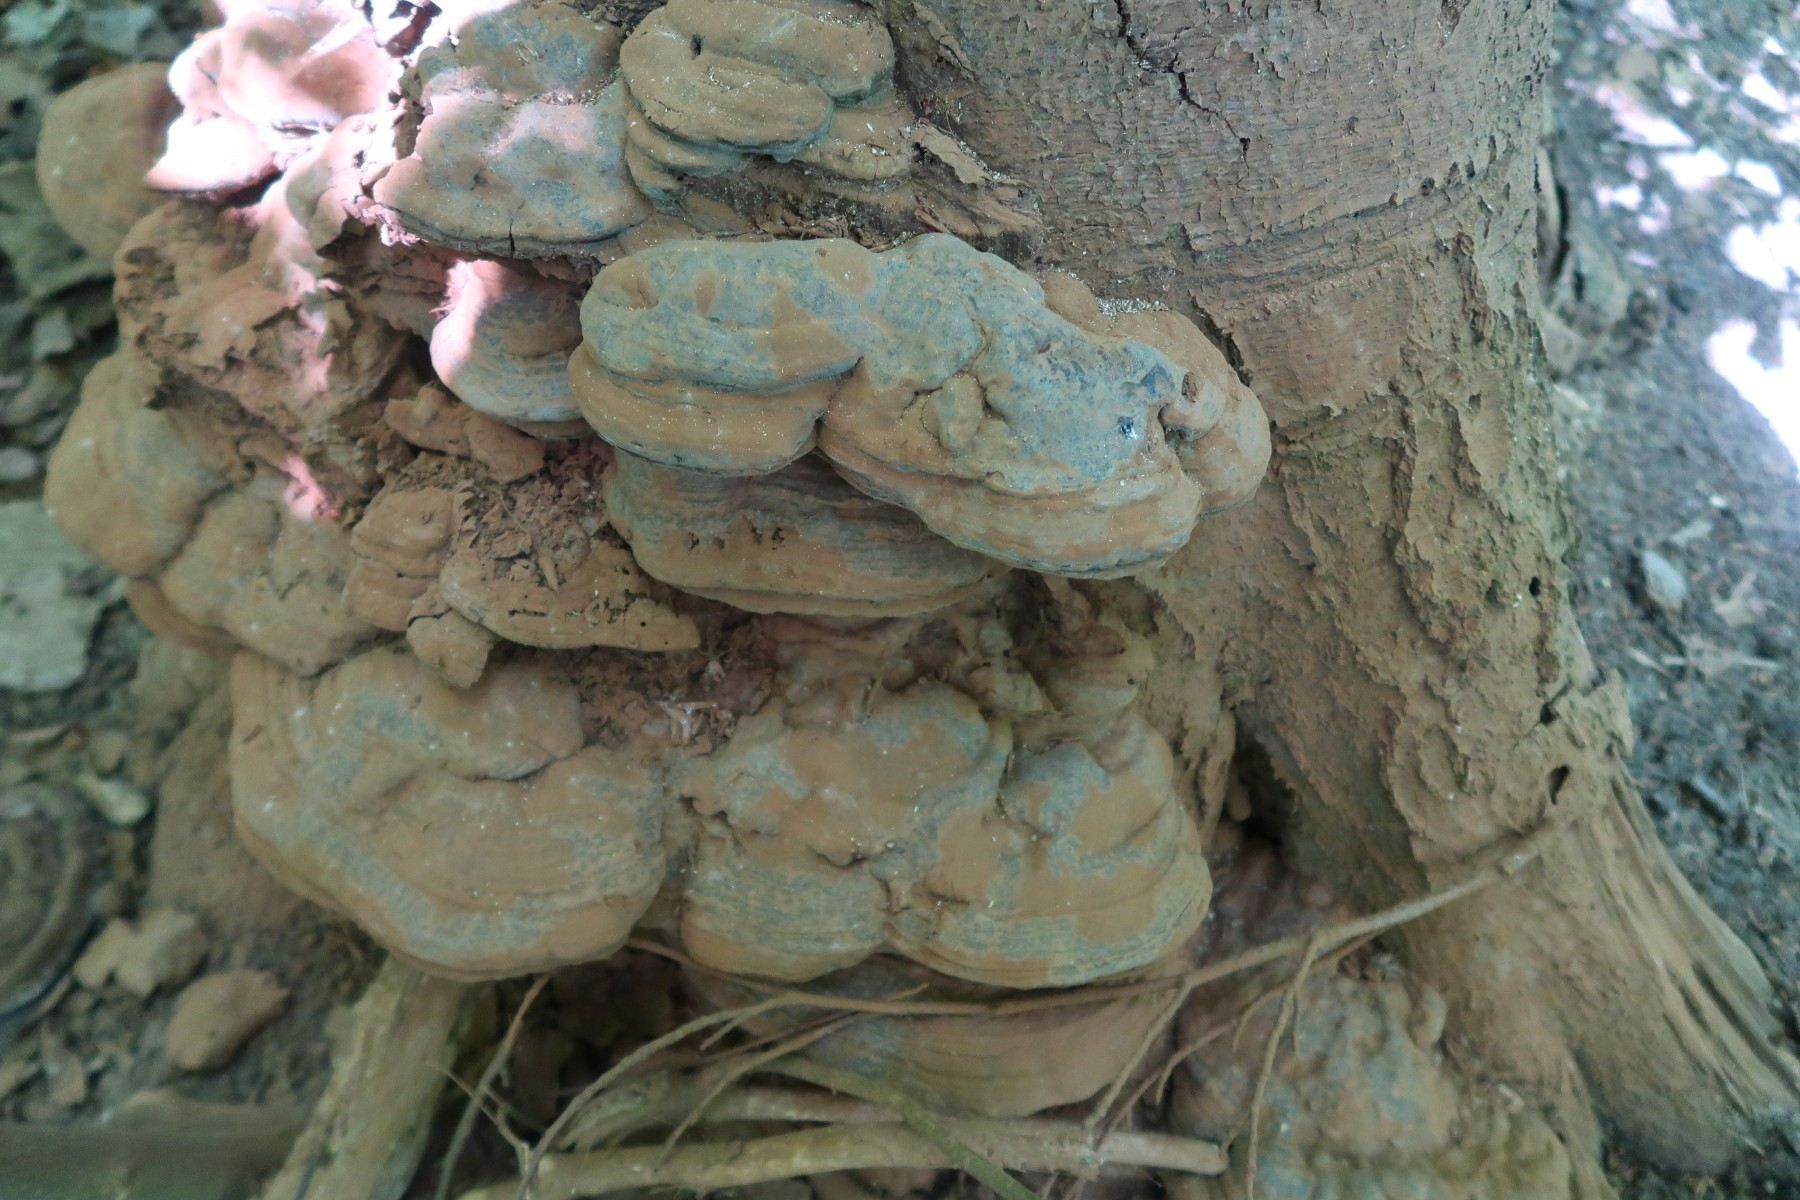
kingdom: Fungi
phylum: Basidiomycota
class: Agaricomycetes
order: Polyporales
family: Polyporaceae
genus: Ganoderma
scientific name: Ganoderma pfeifferi
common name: kobberrød lakporesvamp
